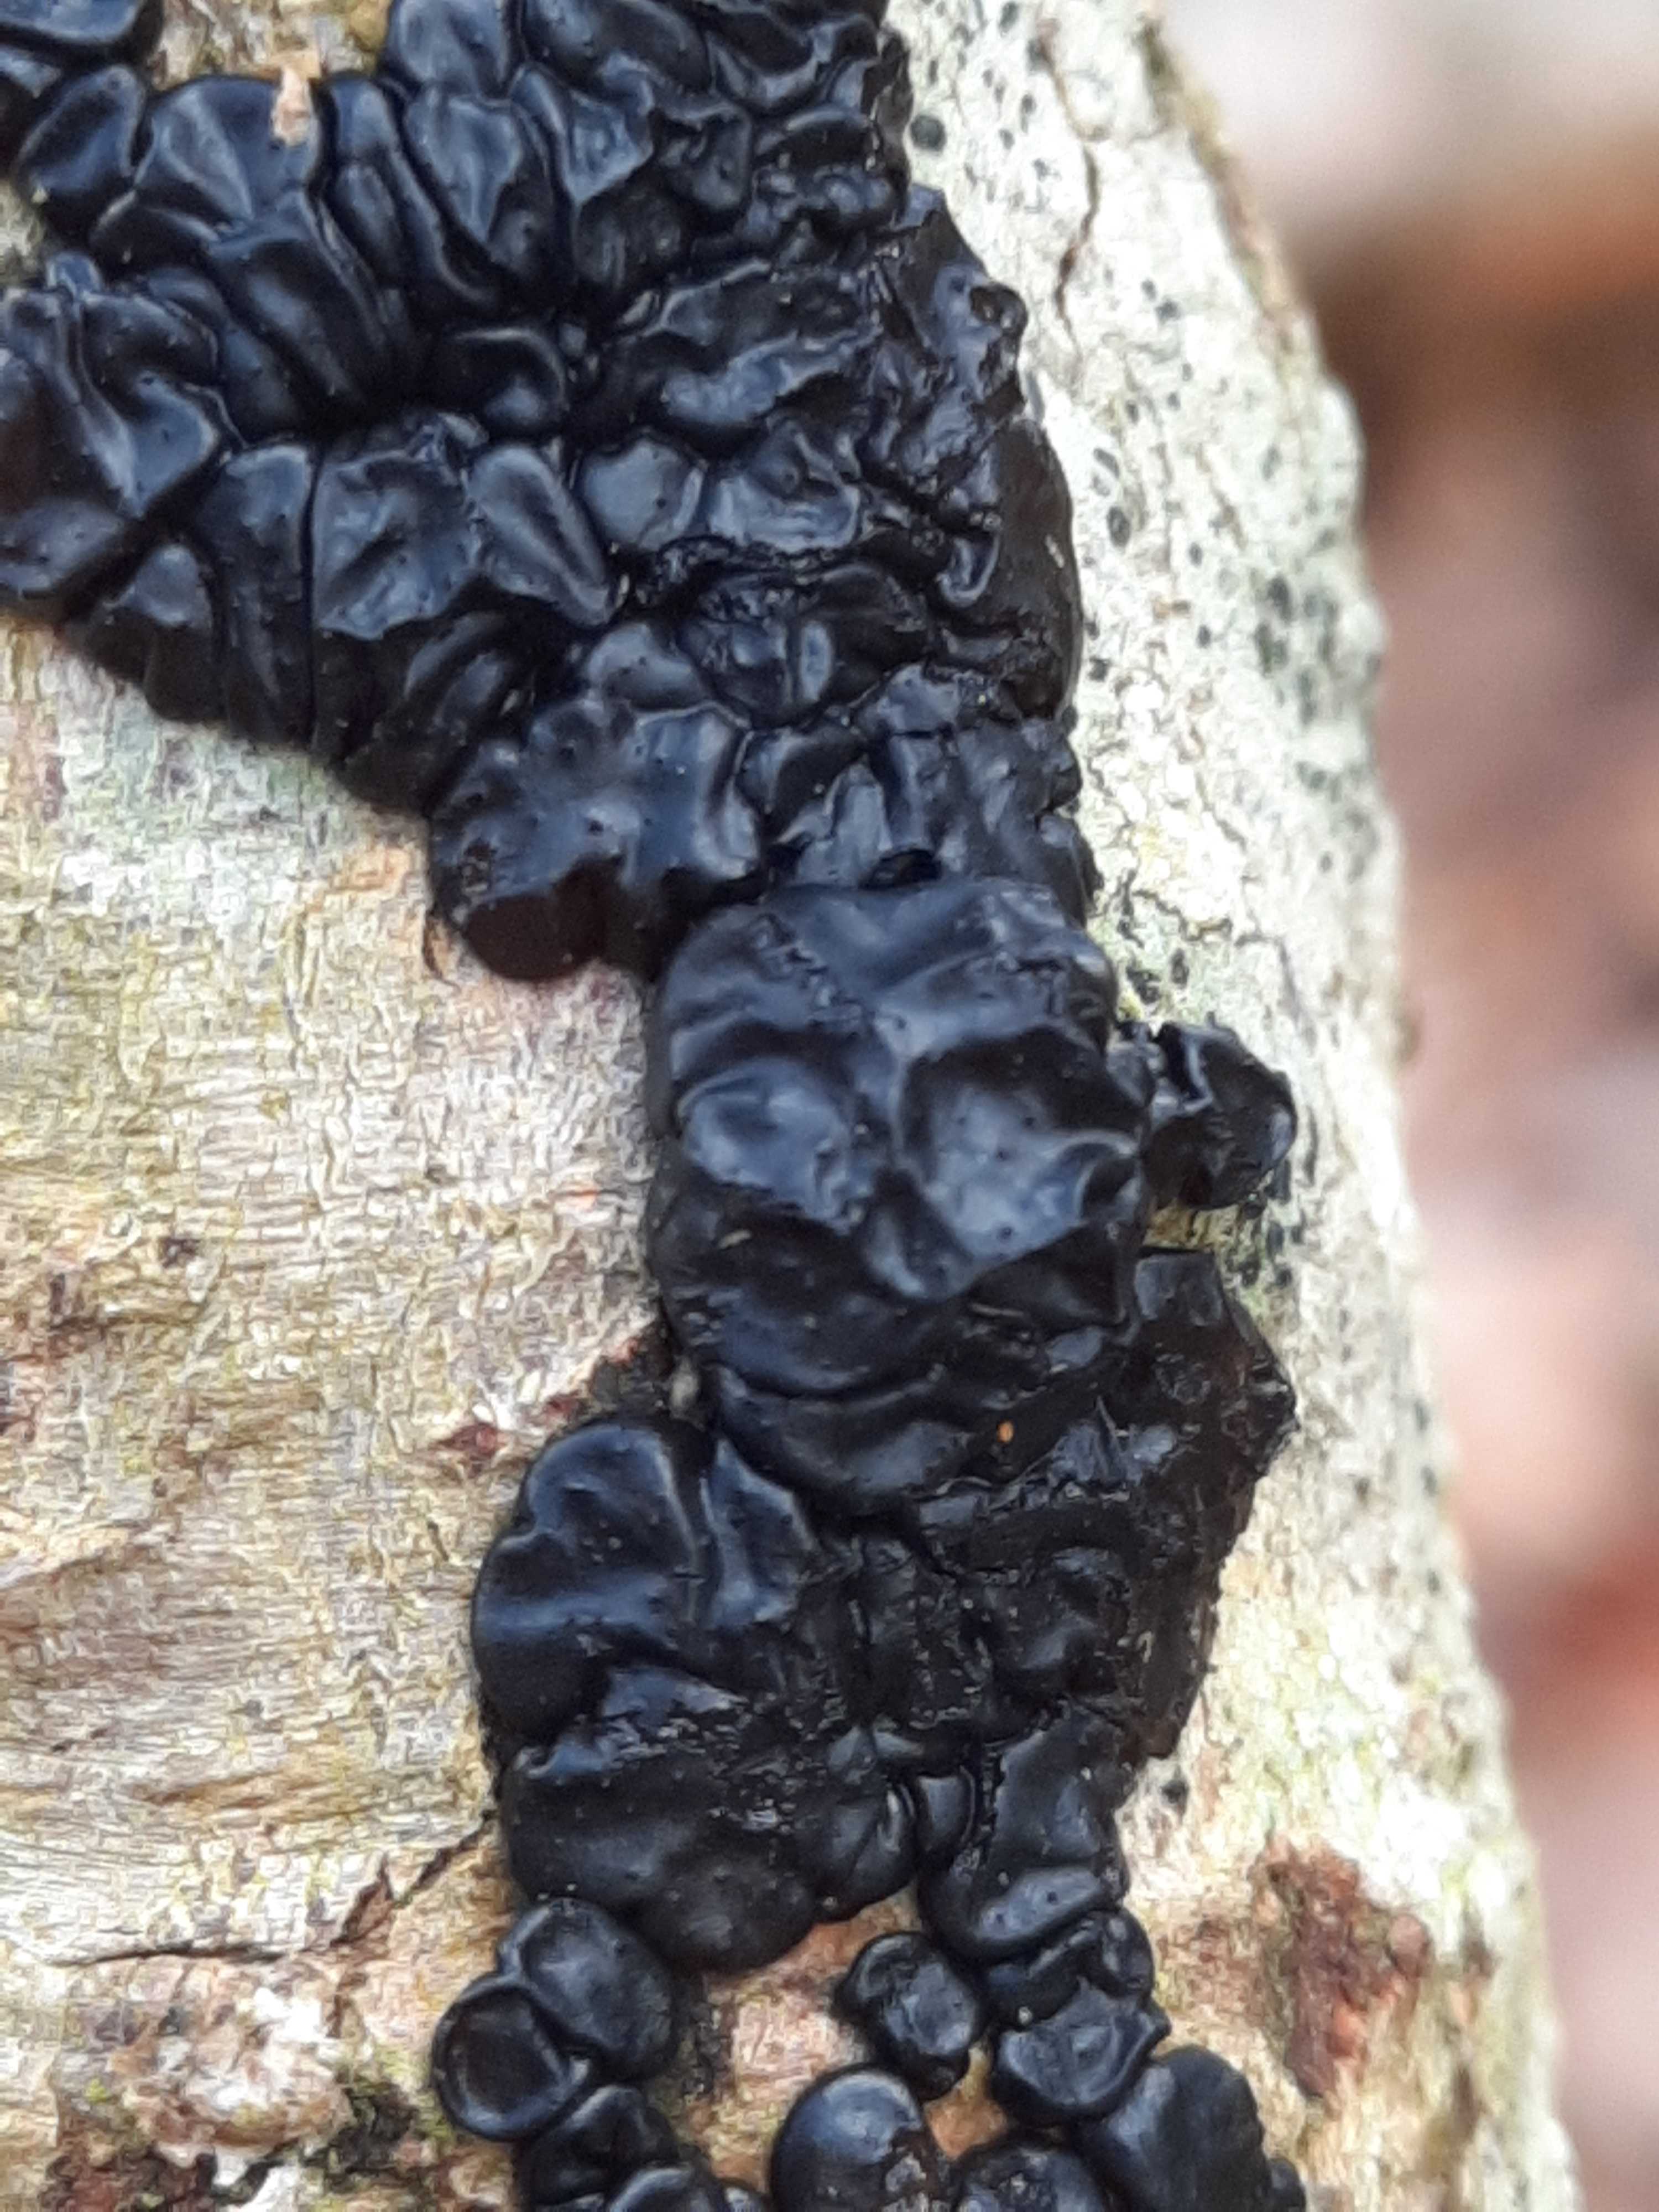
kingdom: Fungi
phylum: Basidiomycota
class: Agaricomycetes
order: Auriculariales
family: Auriculariaceae
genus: Exidia
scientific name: Exidia nigricans
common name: almindelig bævretop
